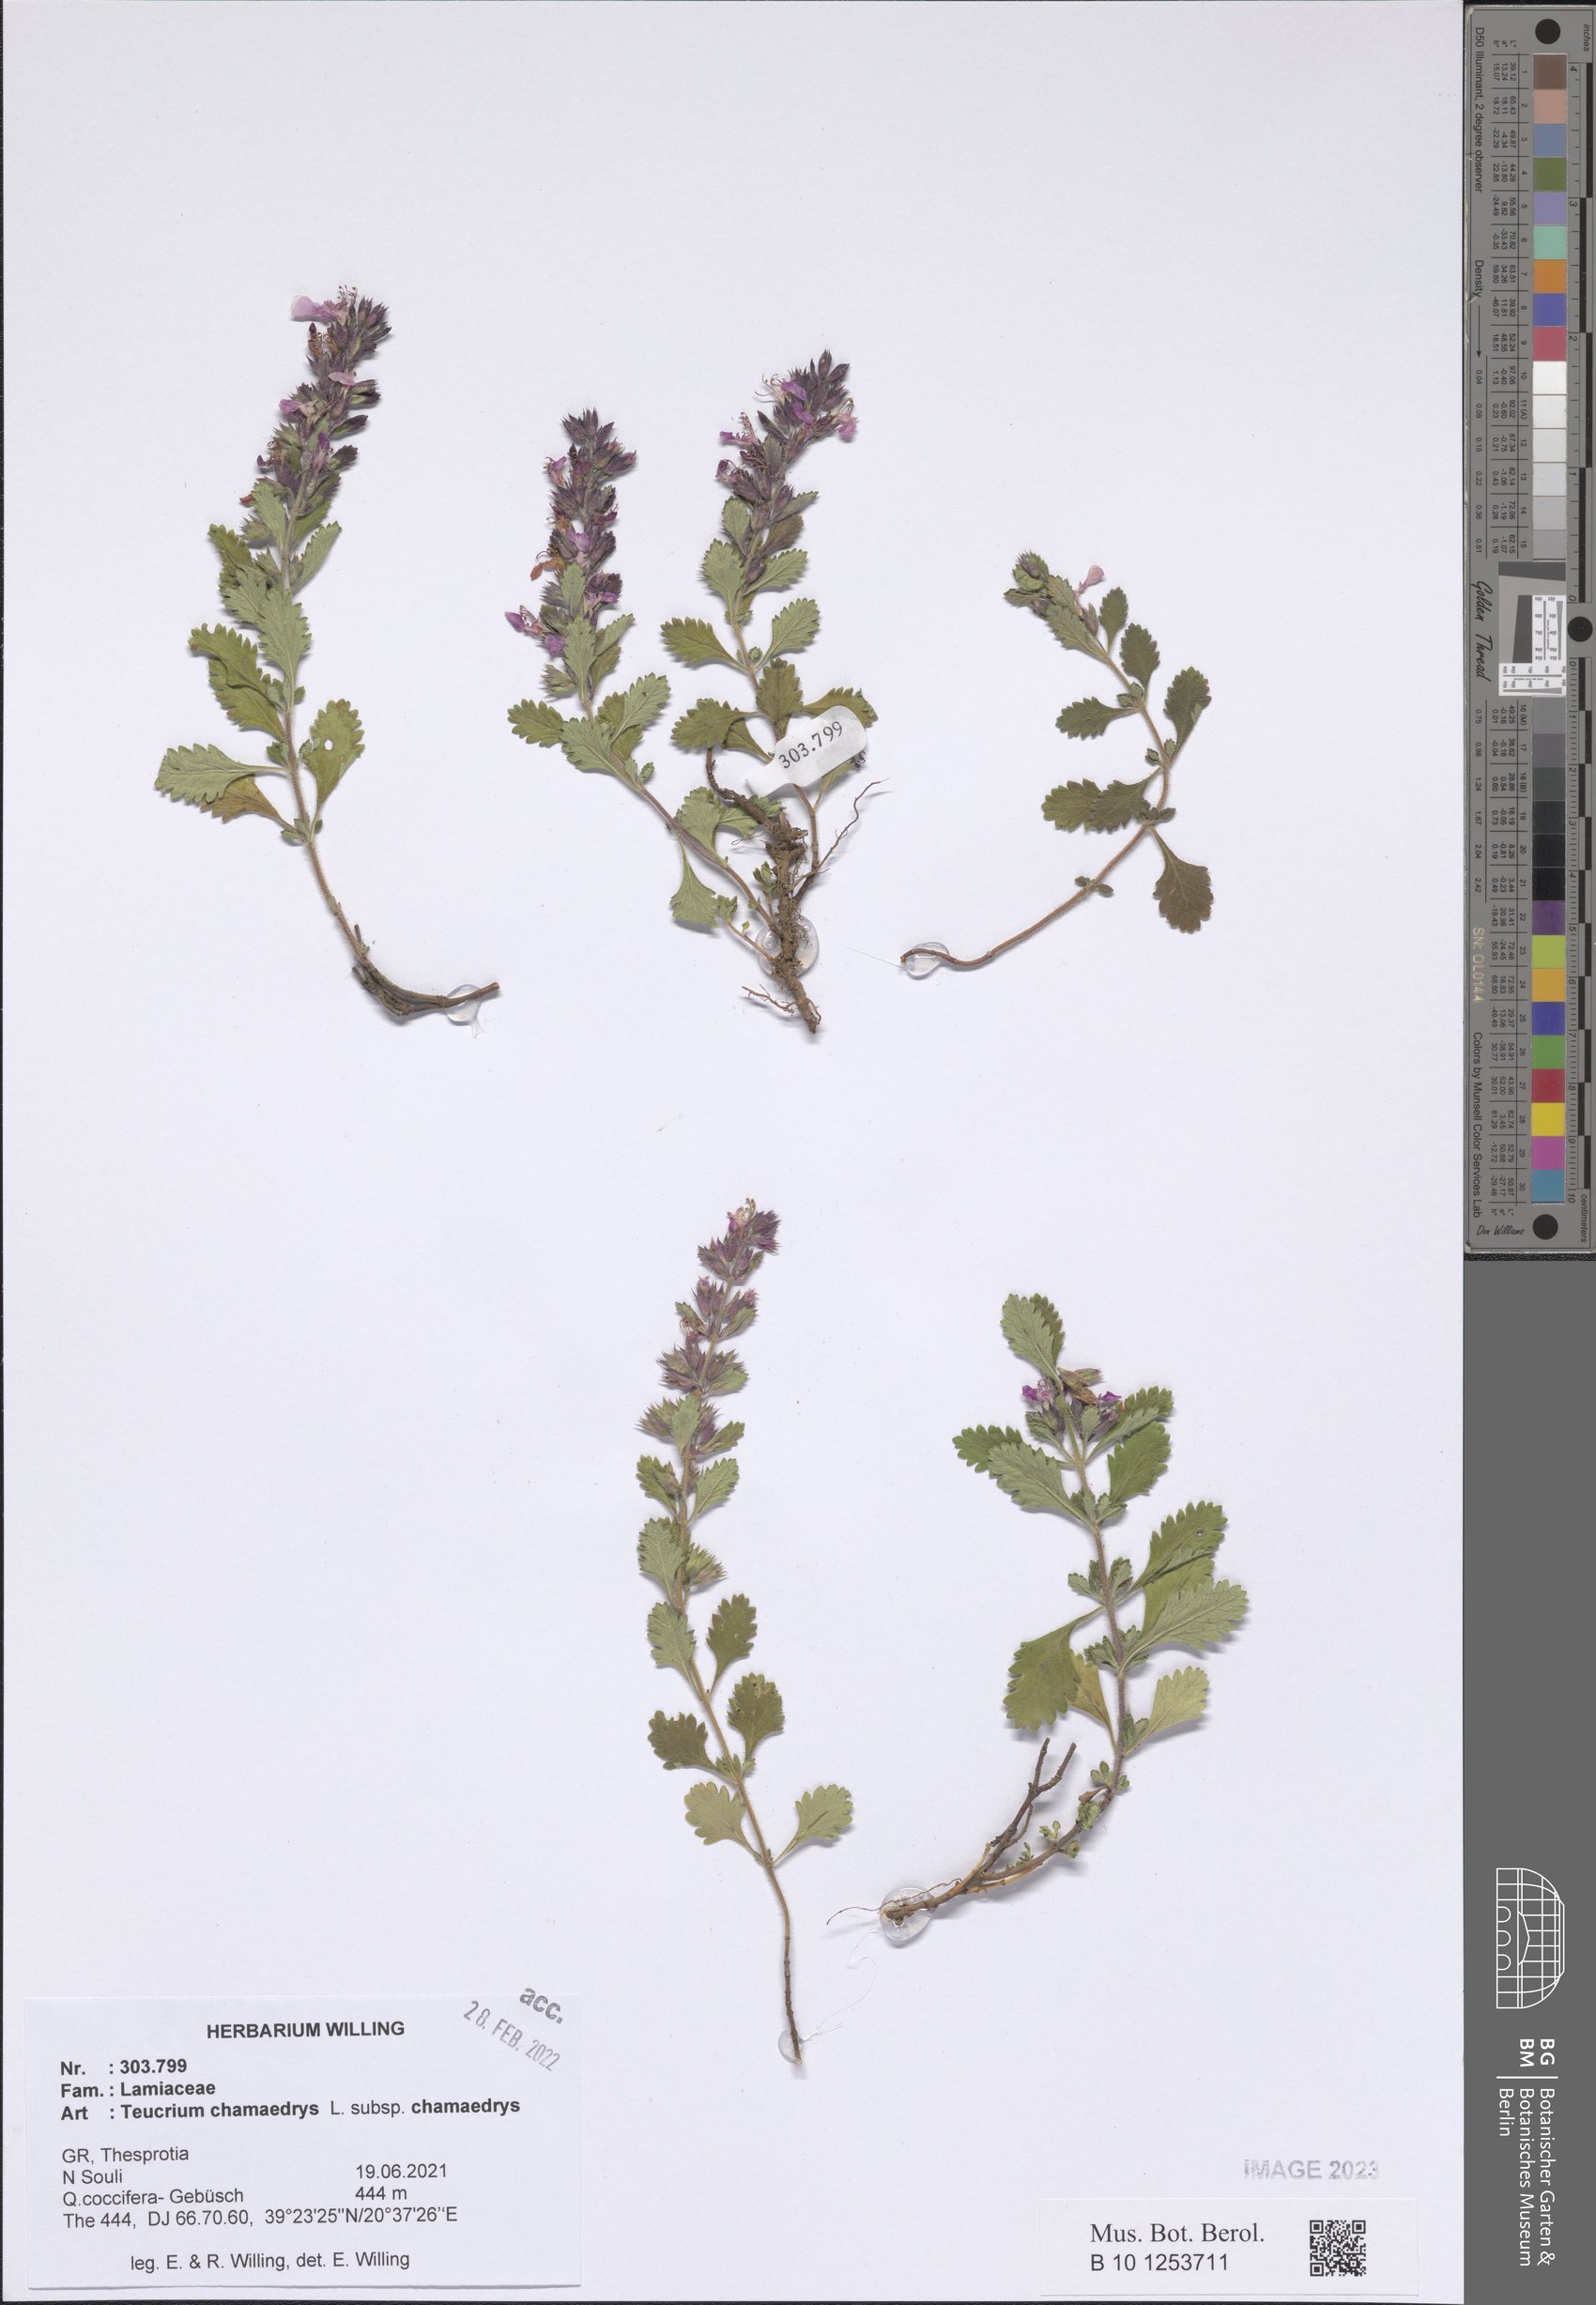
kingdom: Plantae
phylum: Tracheophyta
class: Magnoliopsida
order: Lamiales
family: Lamiaceae
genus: Teucrium
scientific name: Teucrium chamaedrys
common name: Wall germander
